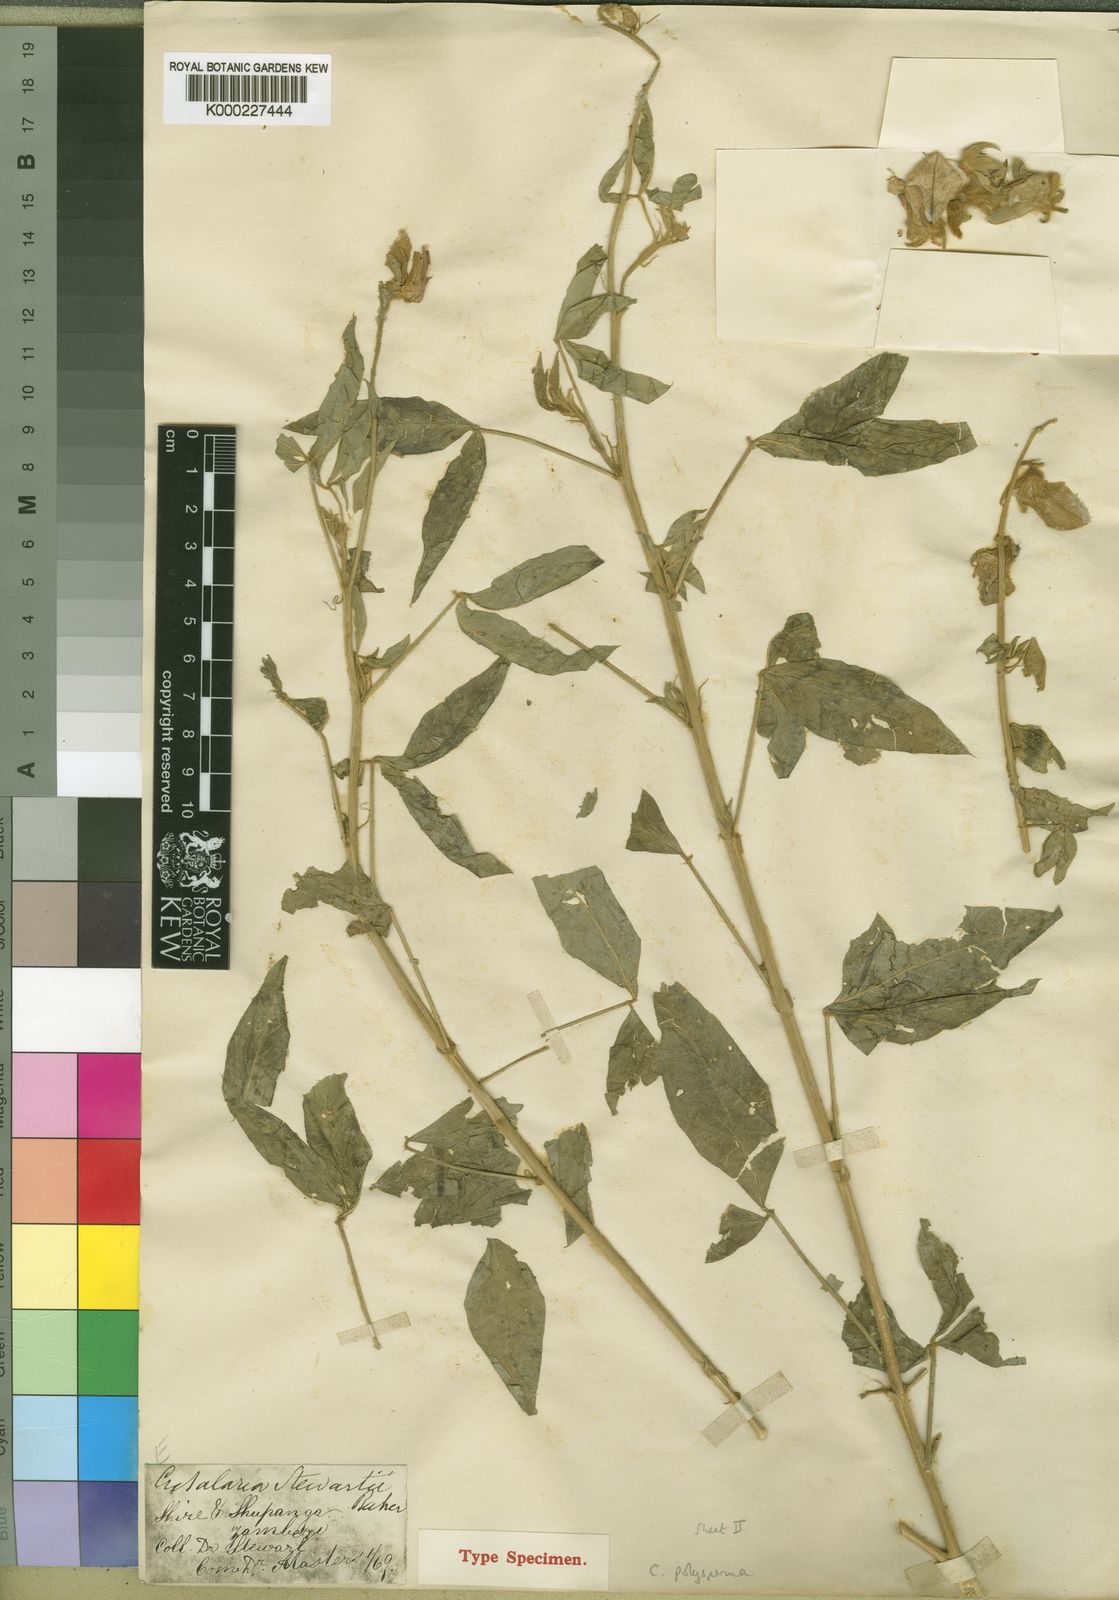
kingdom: Plantae
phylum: Tracheophyta
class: Magnoliopsida
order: Fabales
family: Fabaceae
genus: Crotalaria
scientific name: Crotalaria polysperma
